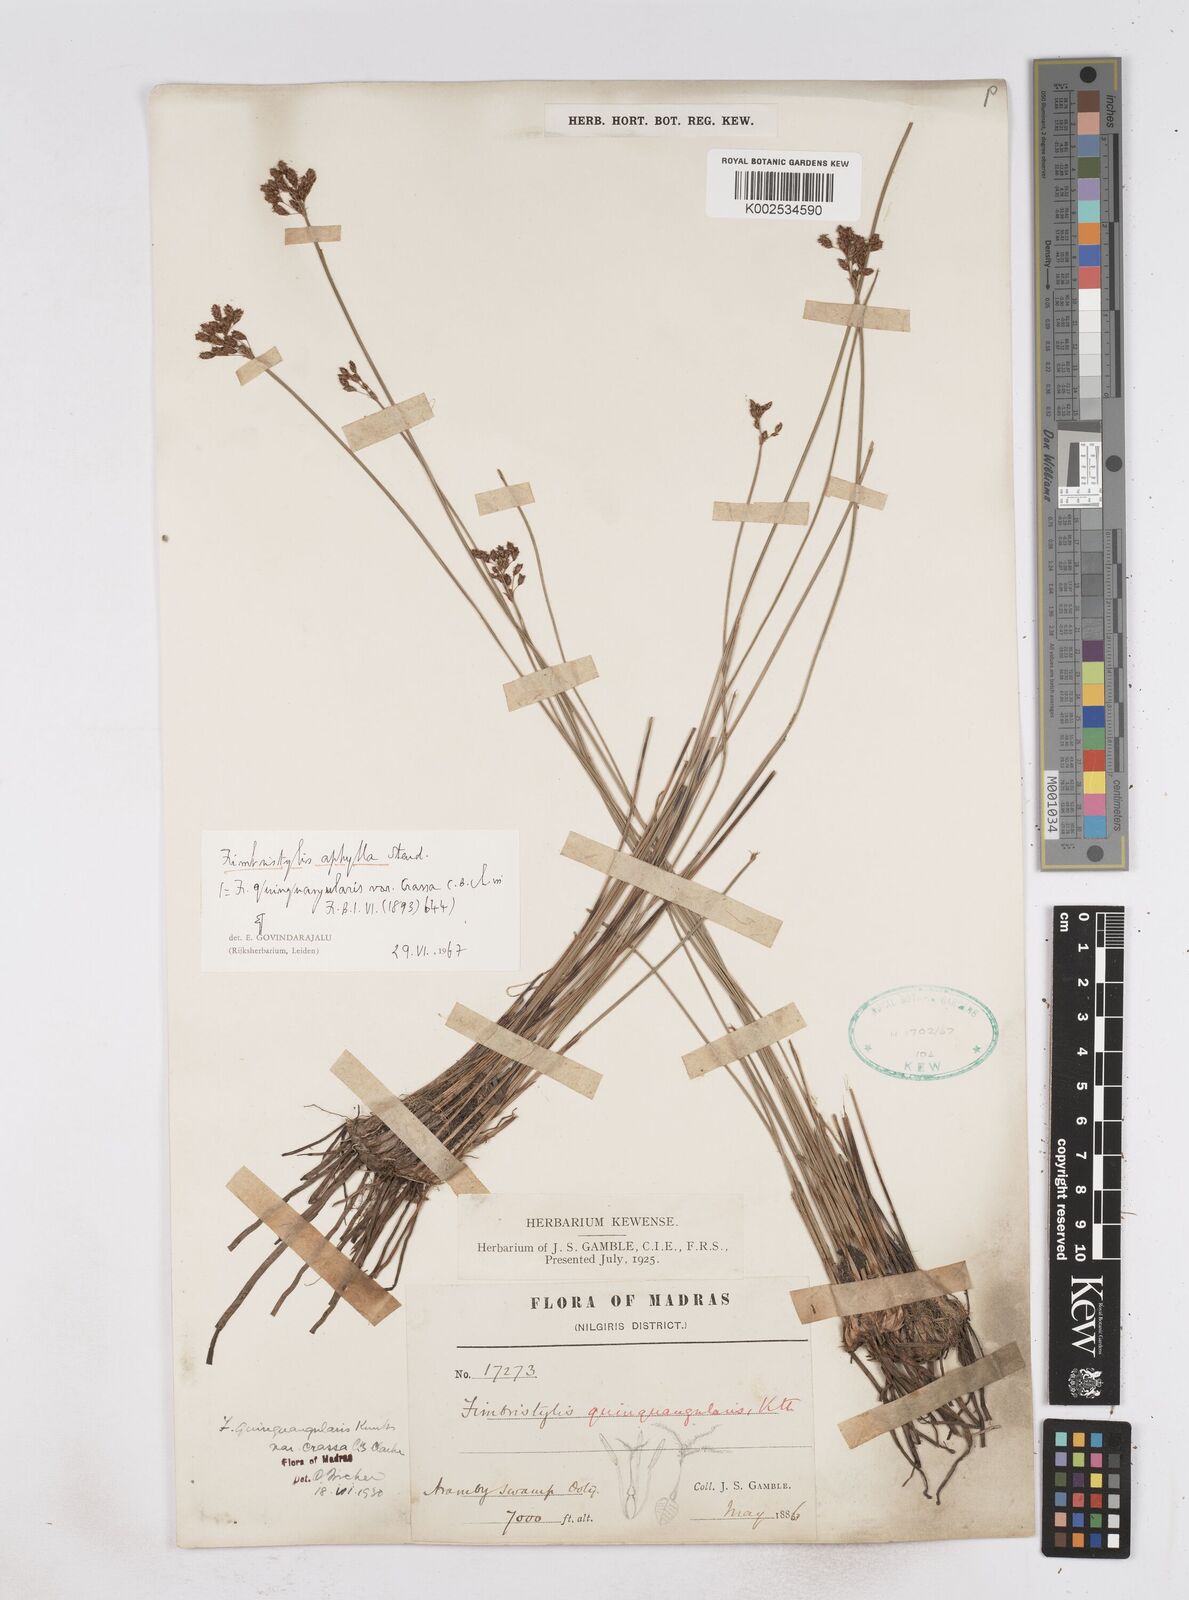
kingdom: Plantae
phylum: Tracheophyta
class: Liliopsida
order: Poales
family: Cyperaceae
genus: Fimbristylis
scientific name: Fimbristylis aphylla
